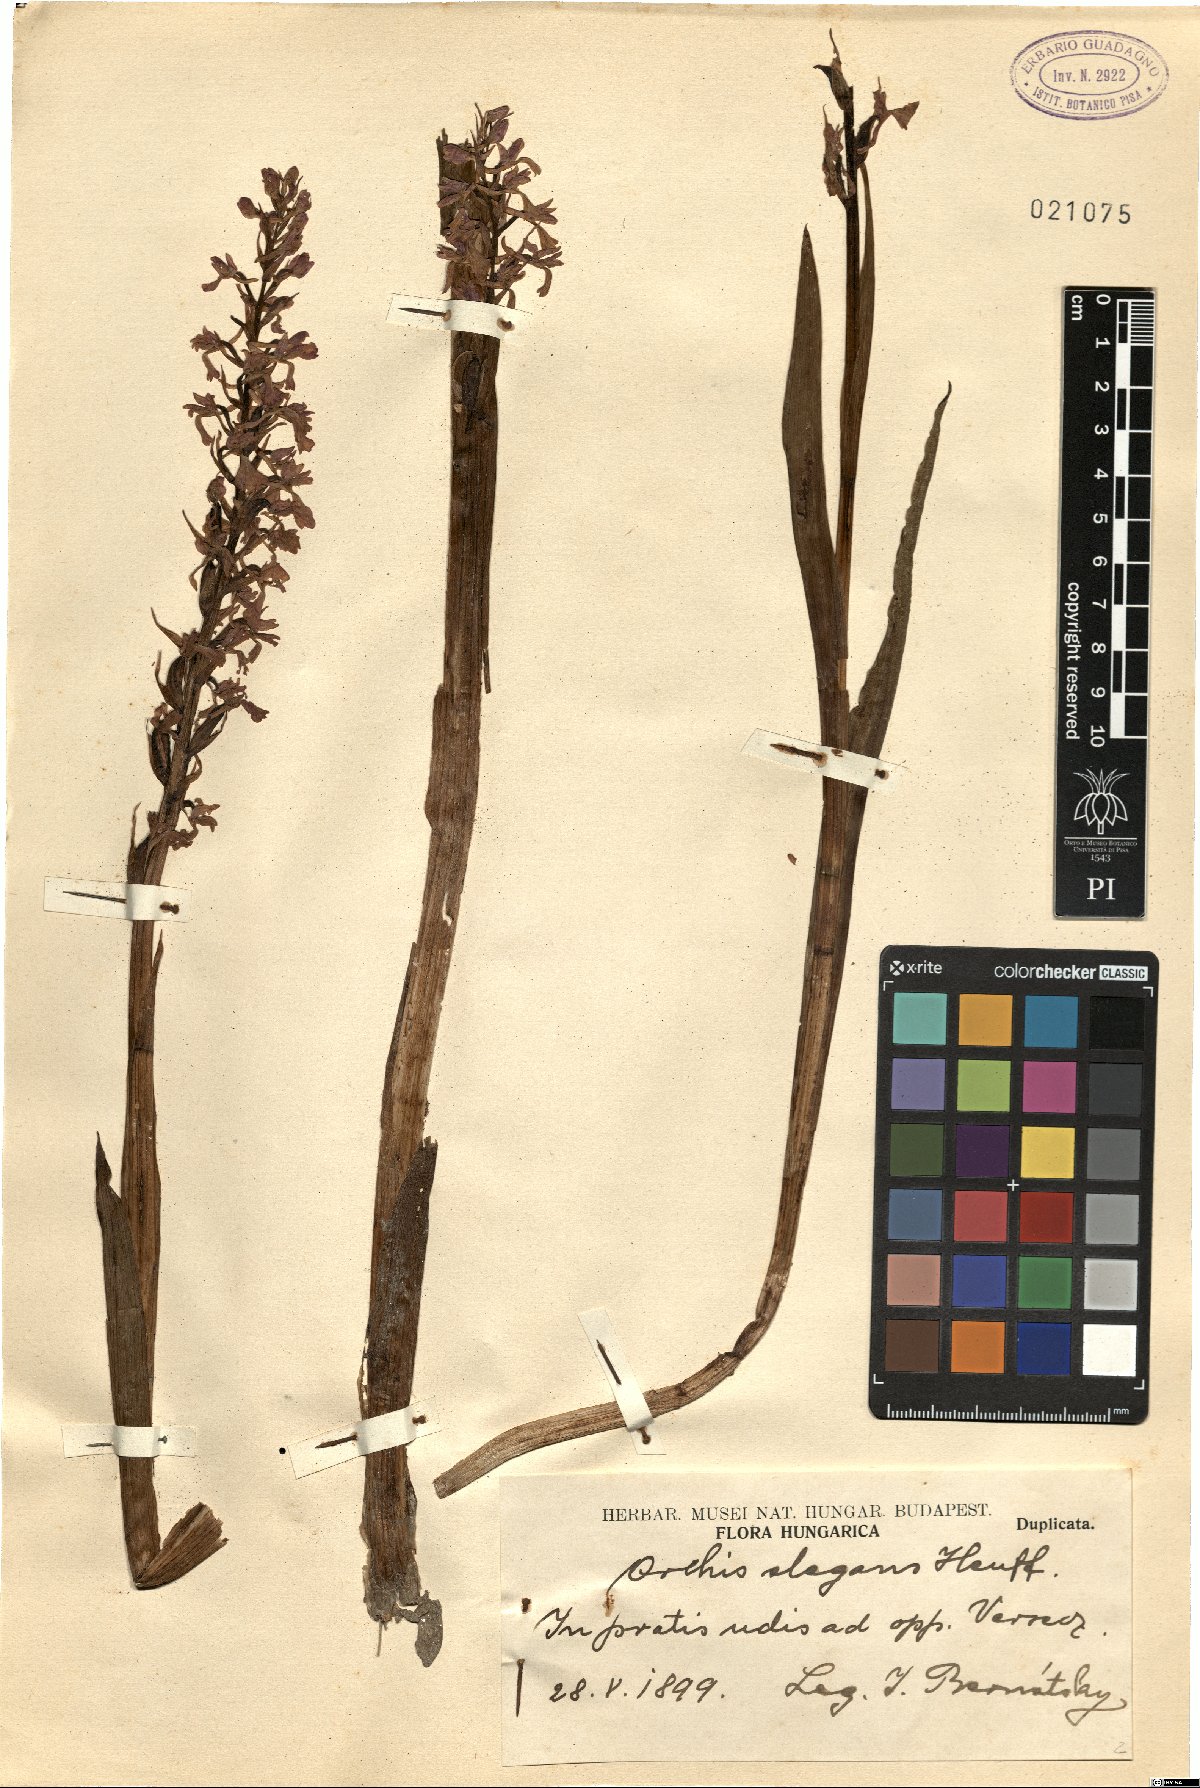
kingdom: Plantae
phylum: Tracheophyta
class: Liliopsida
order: Asparagales
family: Orchidaceae
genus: Anacamptis
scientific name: Anacamptis palustris
